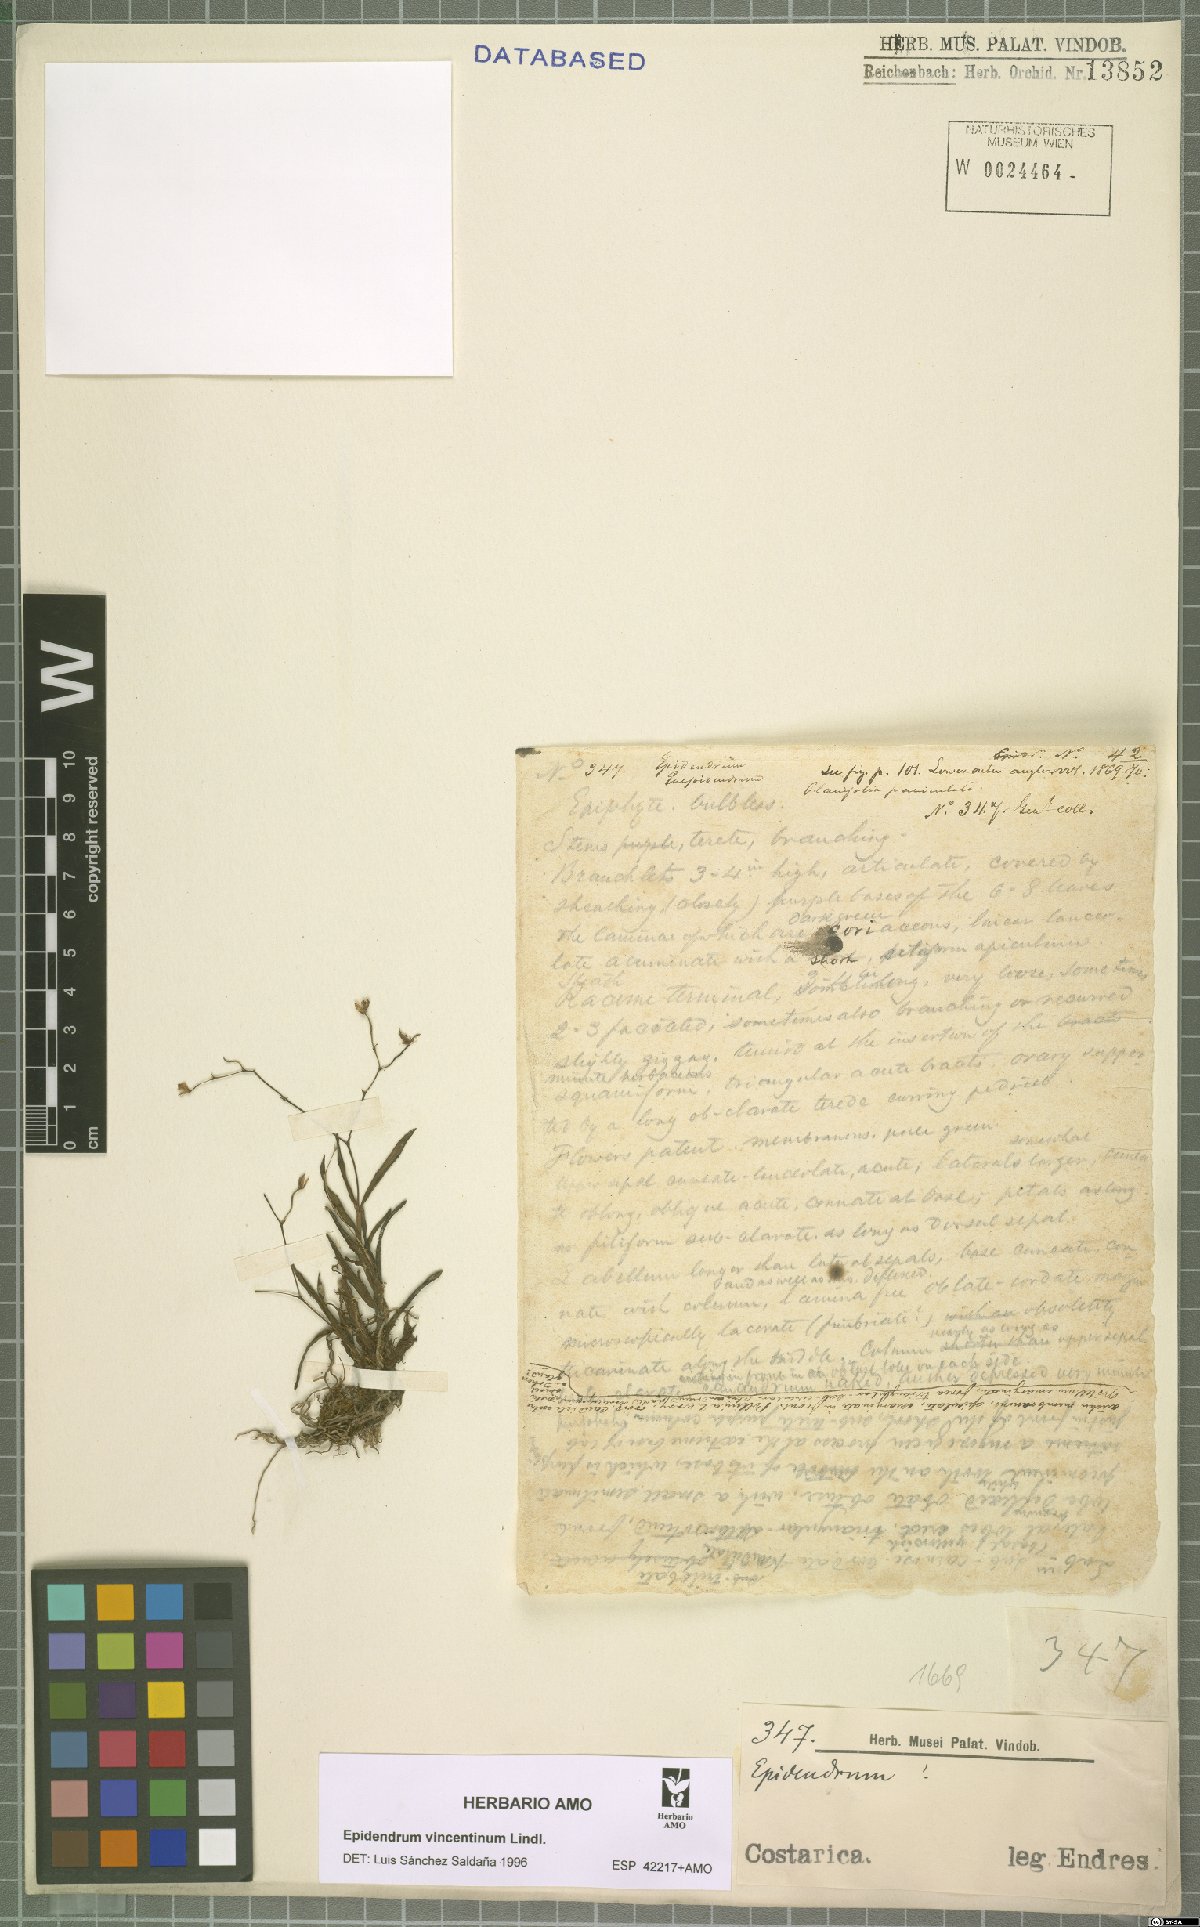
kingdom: Plantae
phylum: Tracheophyta
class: Liliopsida
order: Asparagales
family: Orchidaceae
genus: Epidendrum
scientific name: Epidendrum vincentinum
